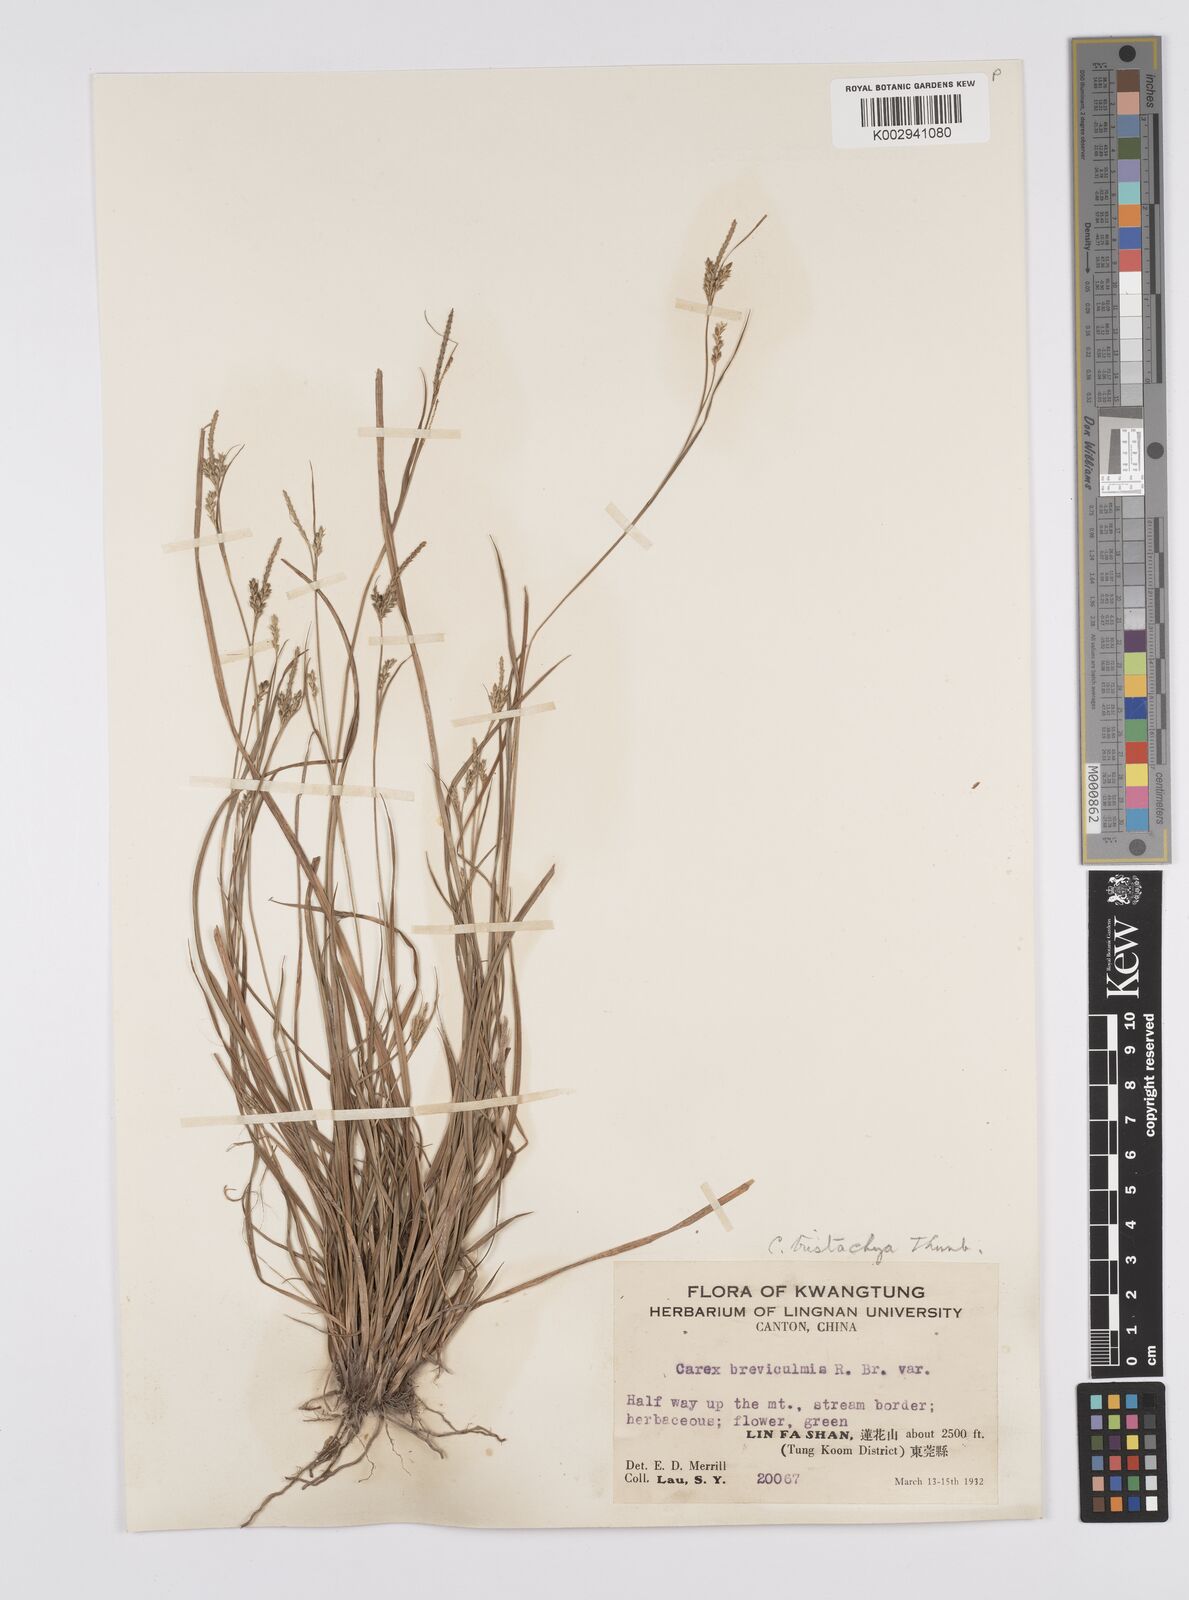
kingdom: Plantae
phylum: Tracheophyta
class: Liliopsida
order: Poales
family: Cyperaceae
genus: Carex
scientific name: Carex tristachya
